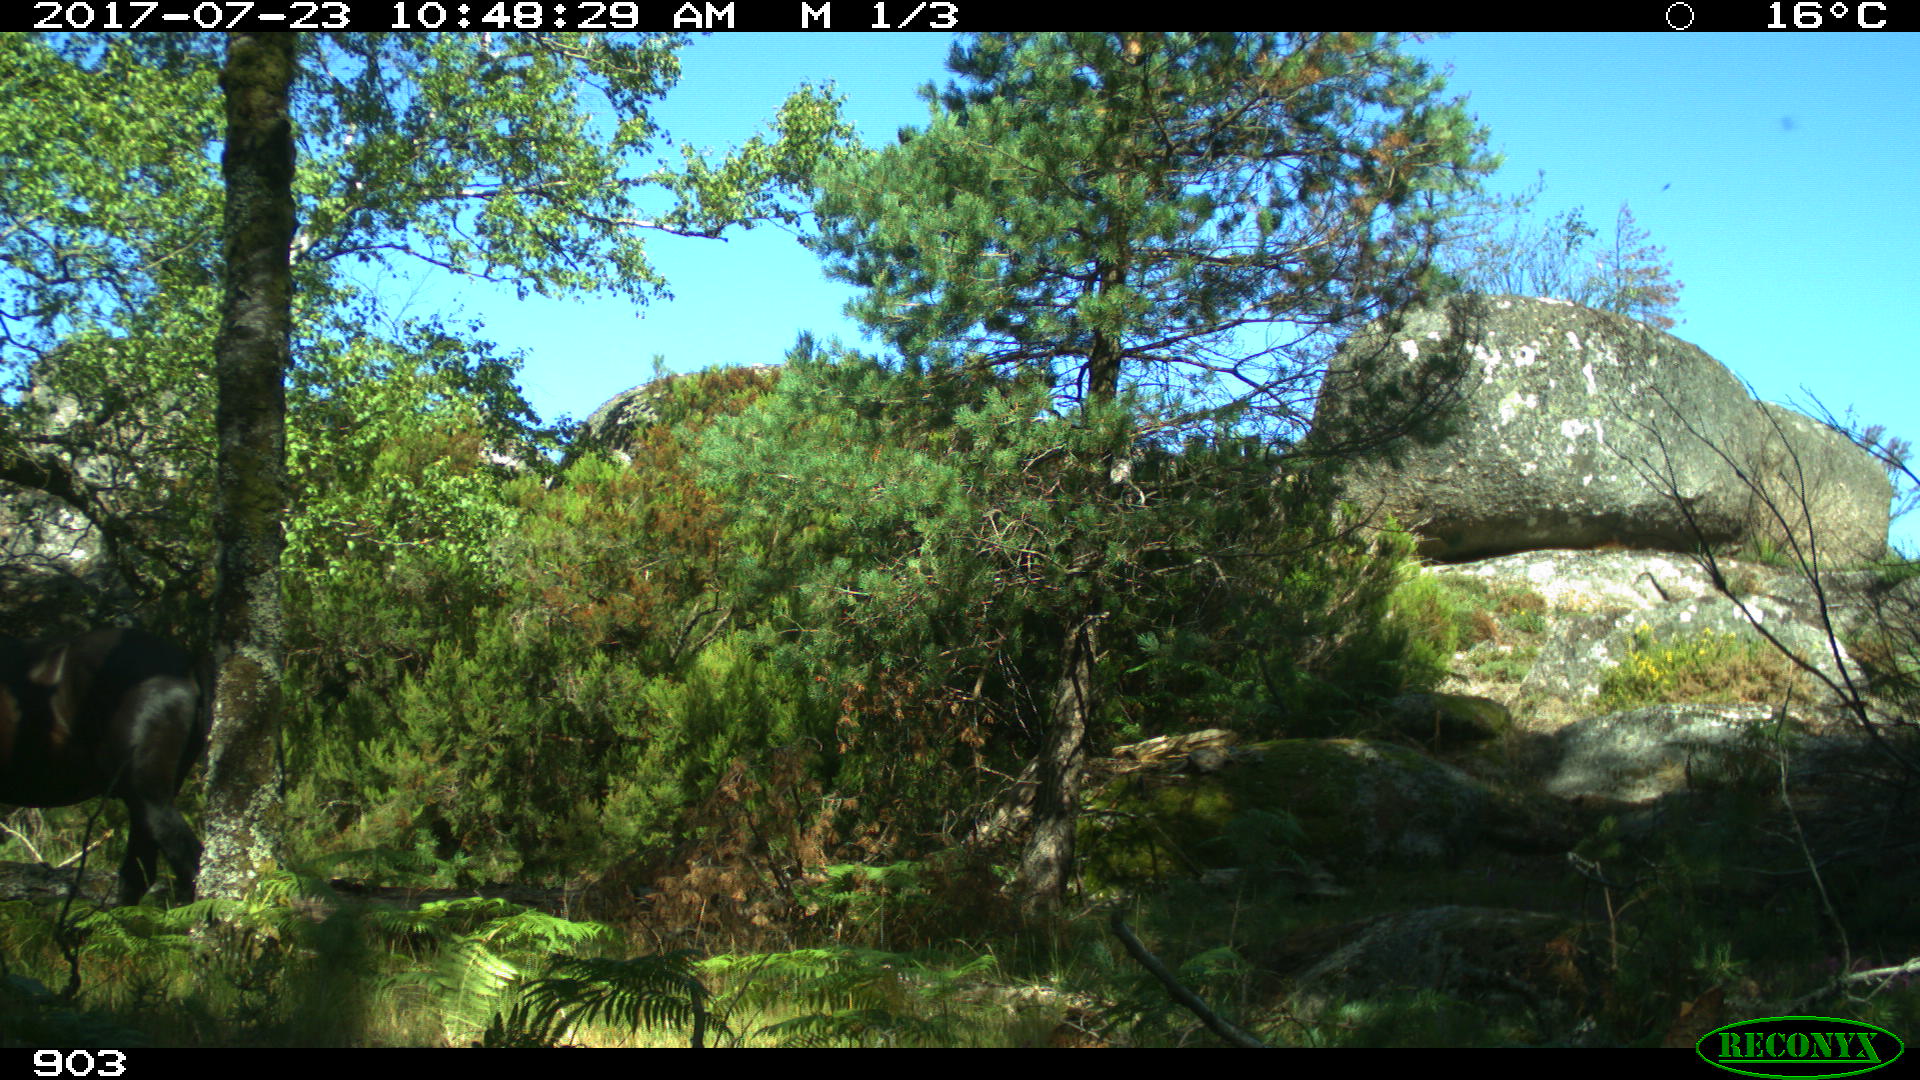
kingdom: Animalia
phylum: Chordata
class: Mammalia
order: Perissodactyla
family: Equidae
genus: Equus
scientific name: Equus caballus
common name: Horse
